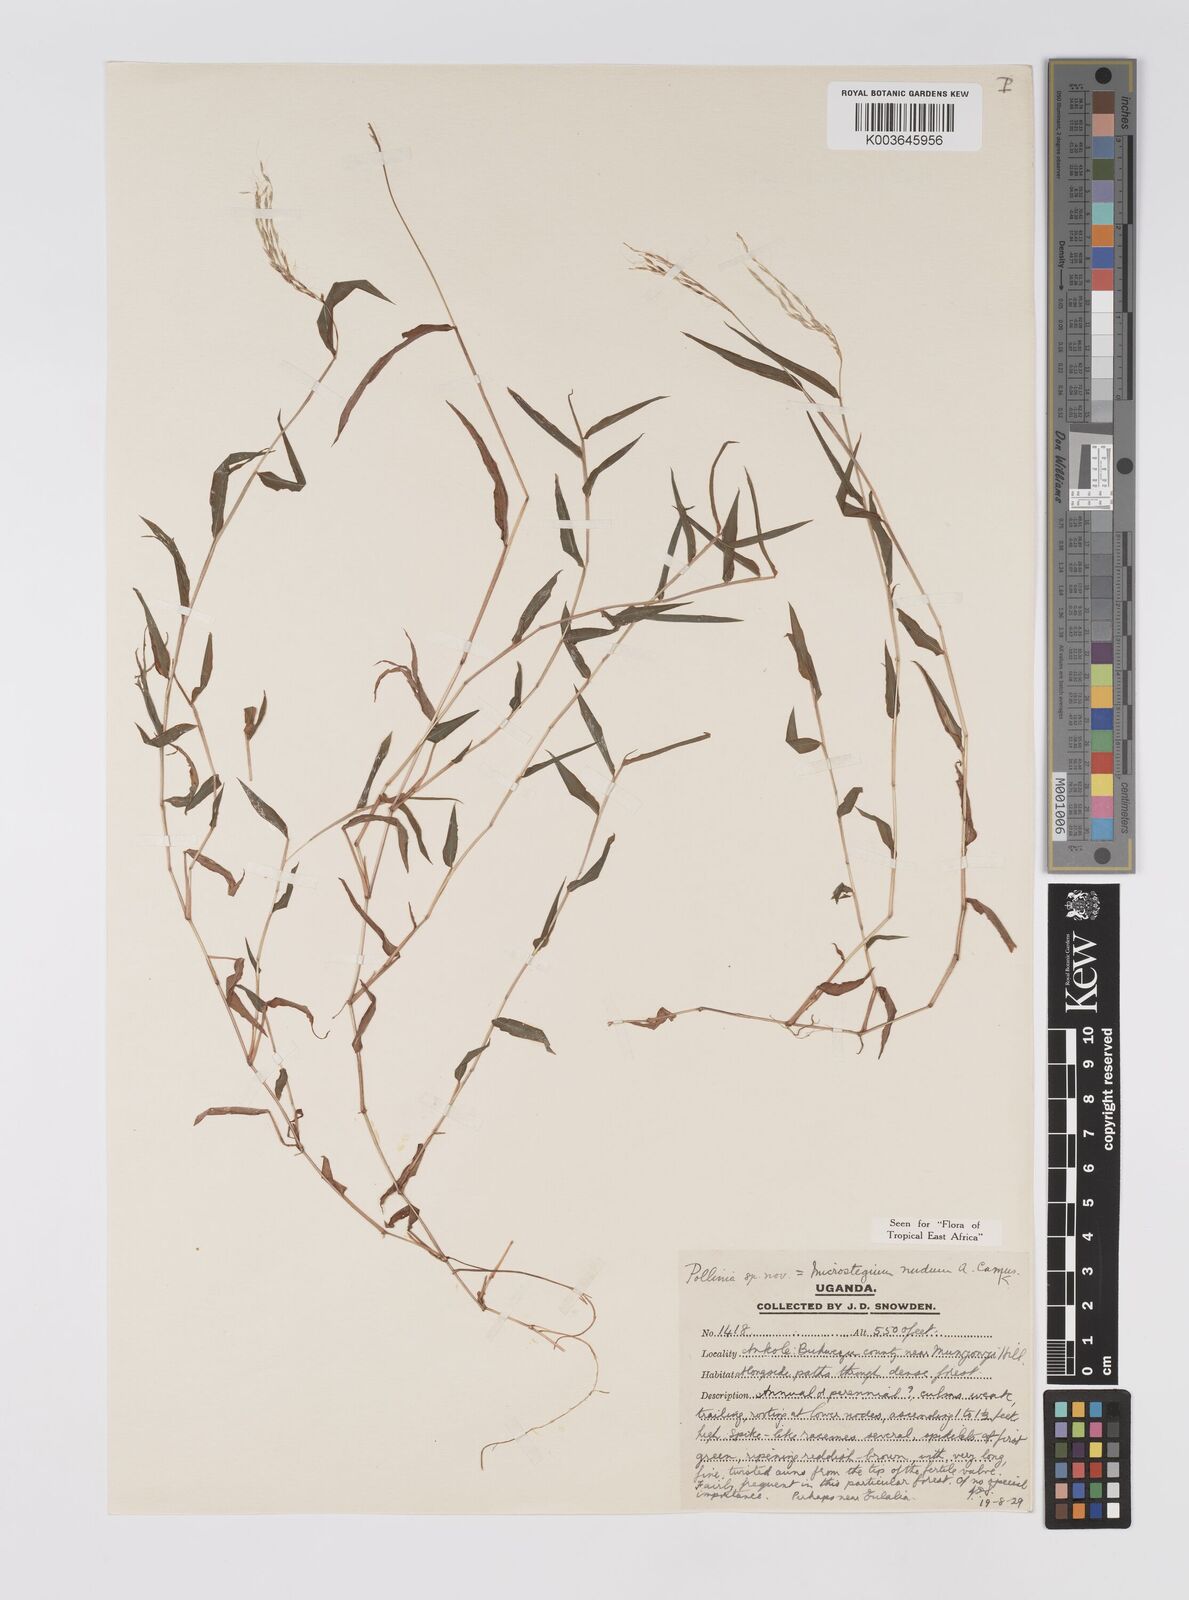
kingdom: Plantae
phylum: Tracheophyta
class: Liliopsida
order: Poales
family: Poaceae
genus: Microstegium
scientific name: Microstegium nudum
